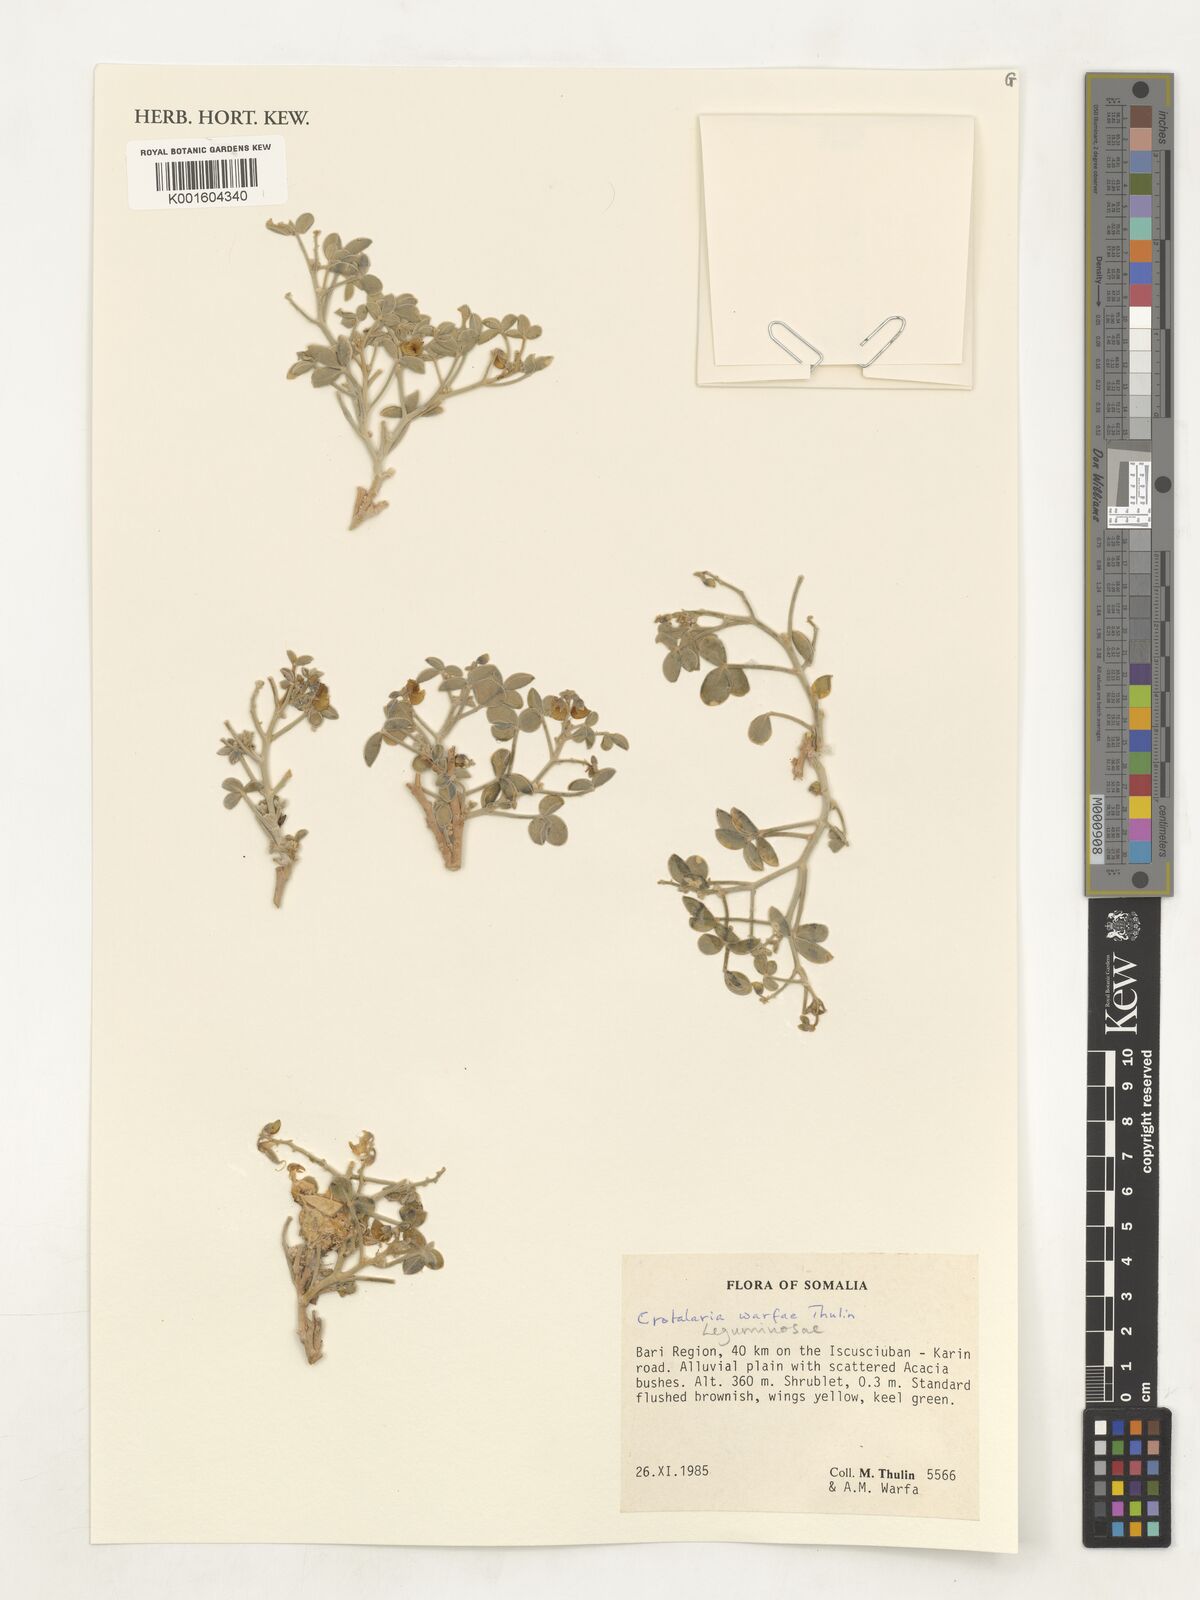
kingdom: Plantae
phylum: Tracheophyta
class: Magnoliopsida
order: Fabales
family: Fabaceae
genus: Crotalaria
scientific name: Crotalaria warfae
